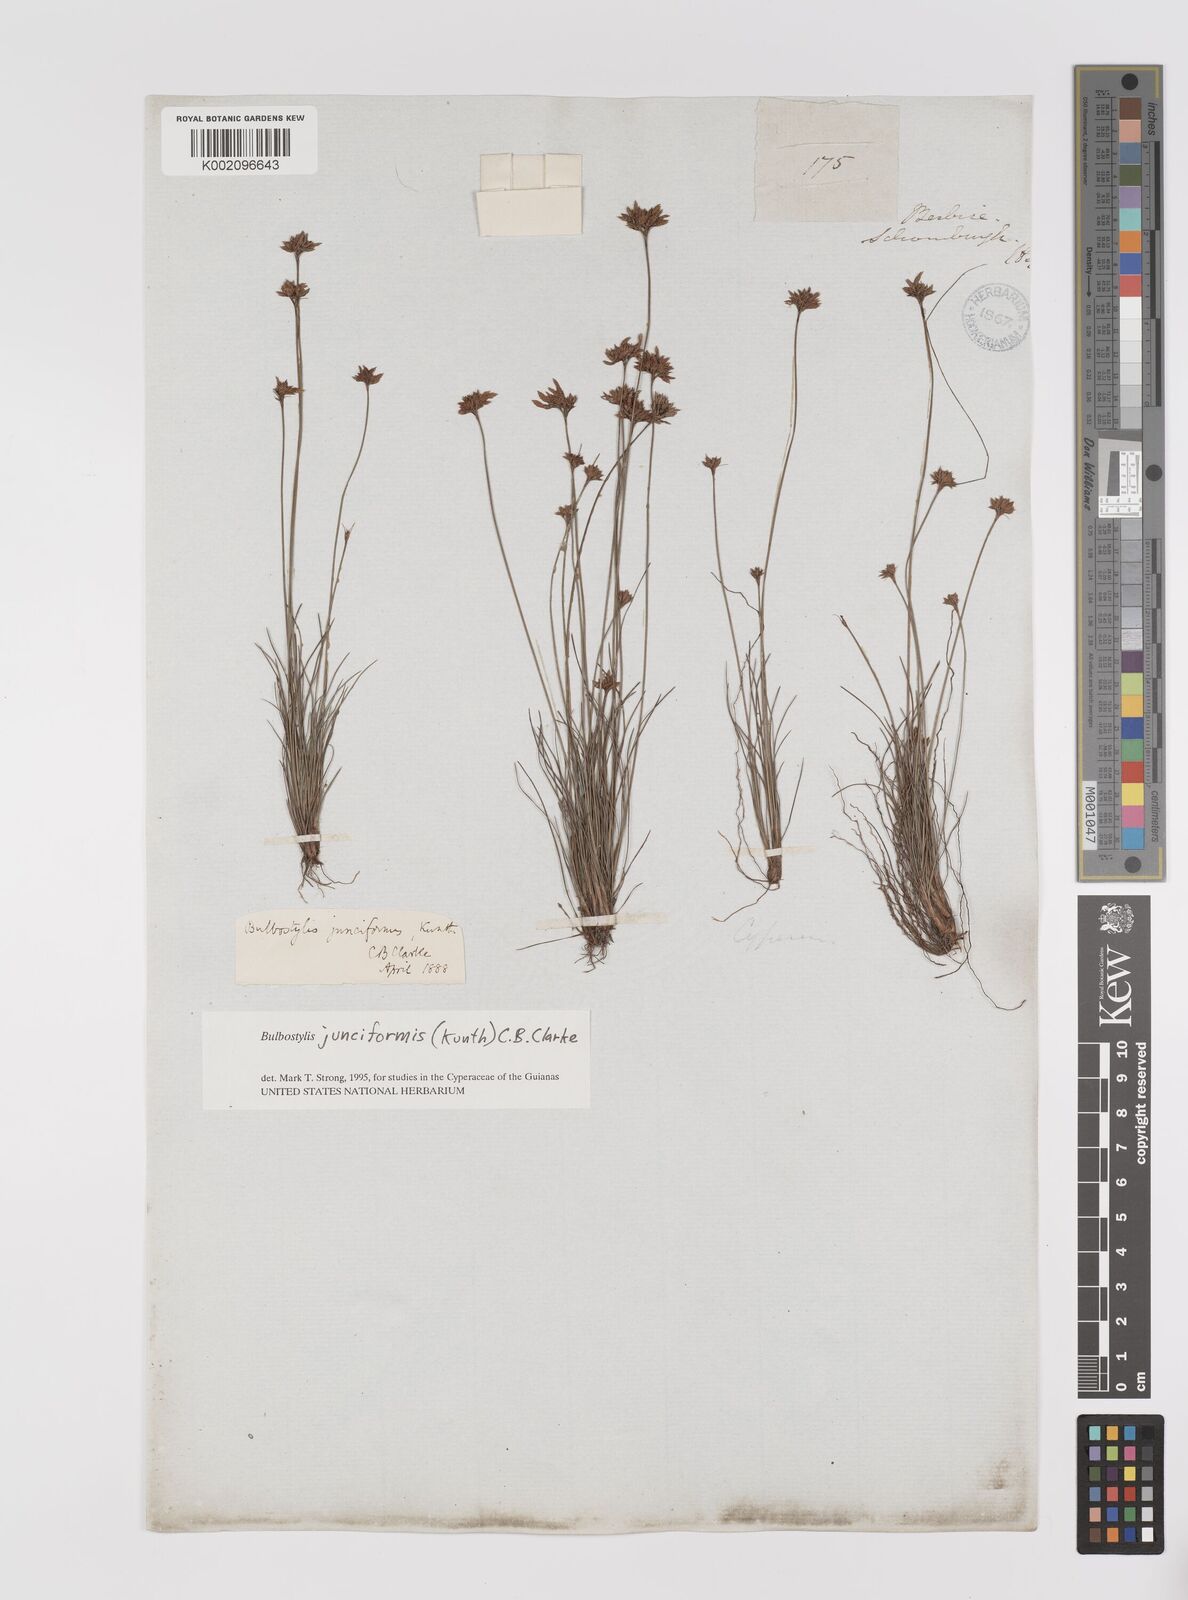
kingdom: Plantae
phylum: Tracheophyta
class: Liliopsida
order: Poales
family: Cyperaceae
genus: Bulbostylis
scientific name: Bulbostylis junciformis
